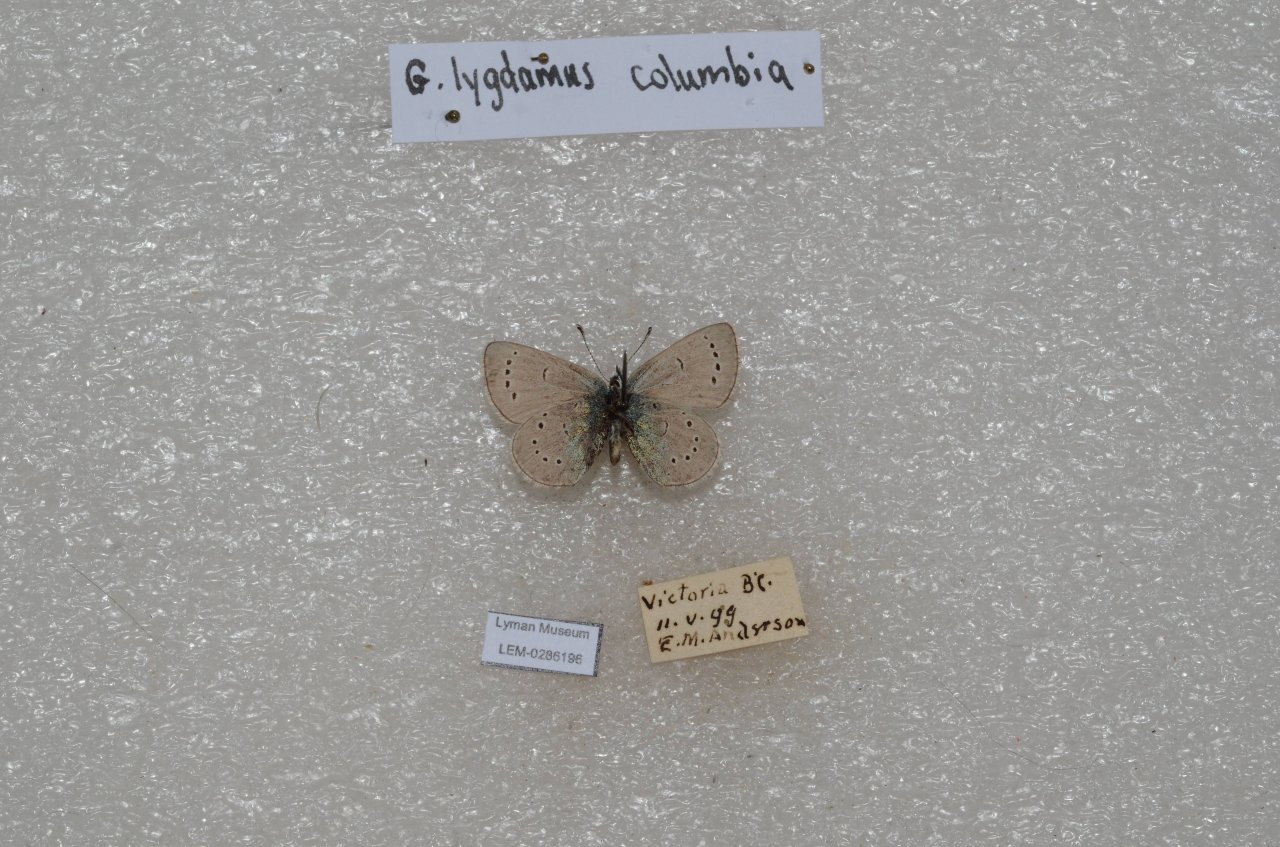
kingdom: Animalia
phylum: Arthropoda
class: Insecta
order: Lepidoptera
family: Lycaenidae
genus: Glaucopsyche
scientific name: Glaucopsyche lygdamus
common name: Silvery Blue
